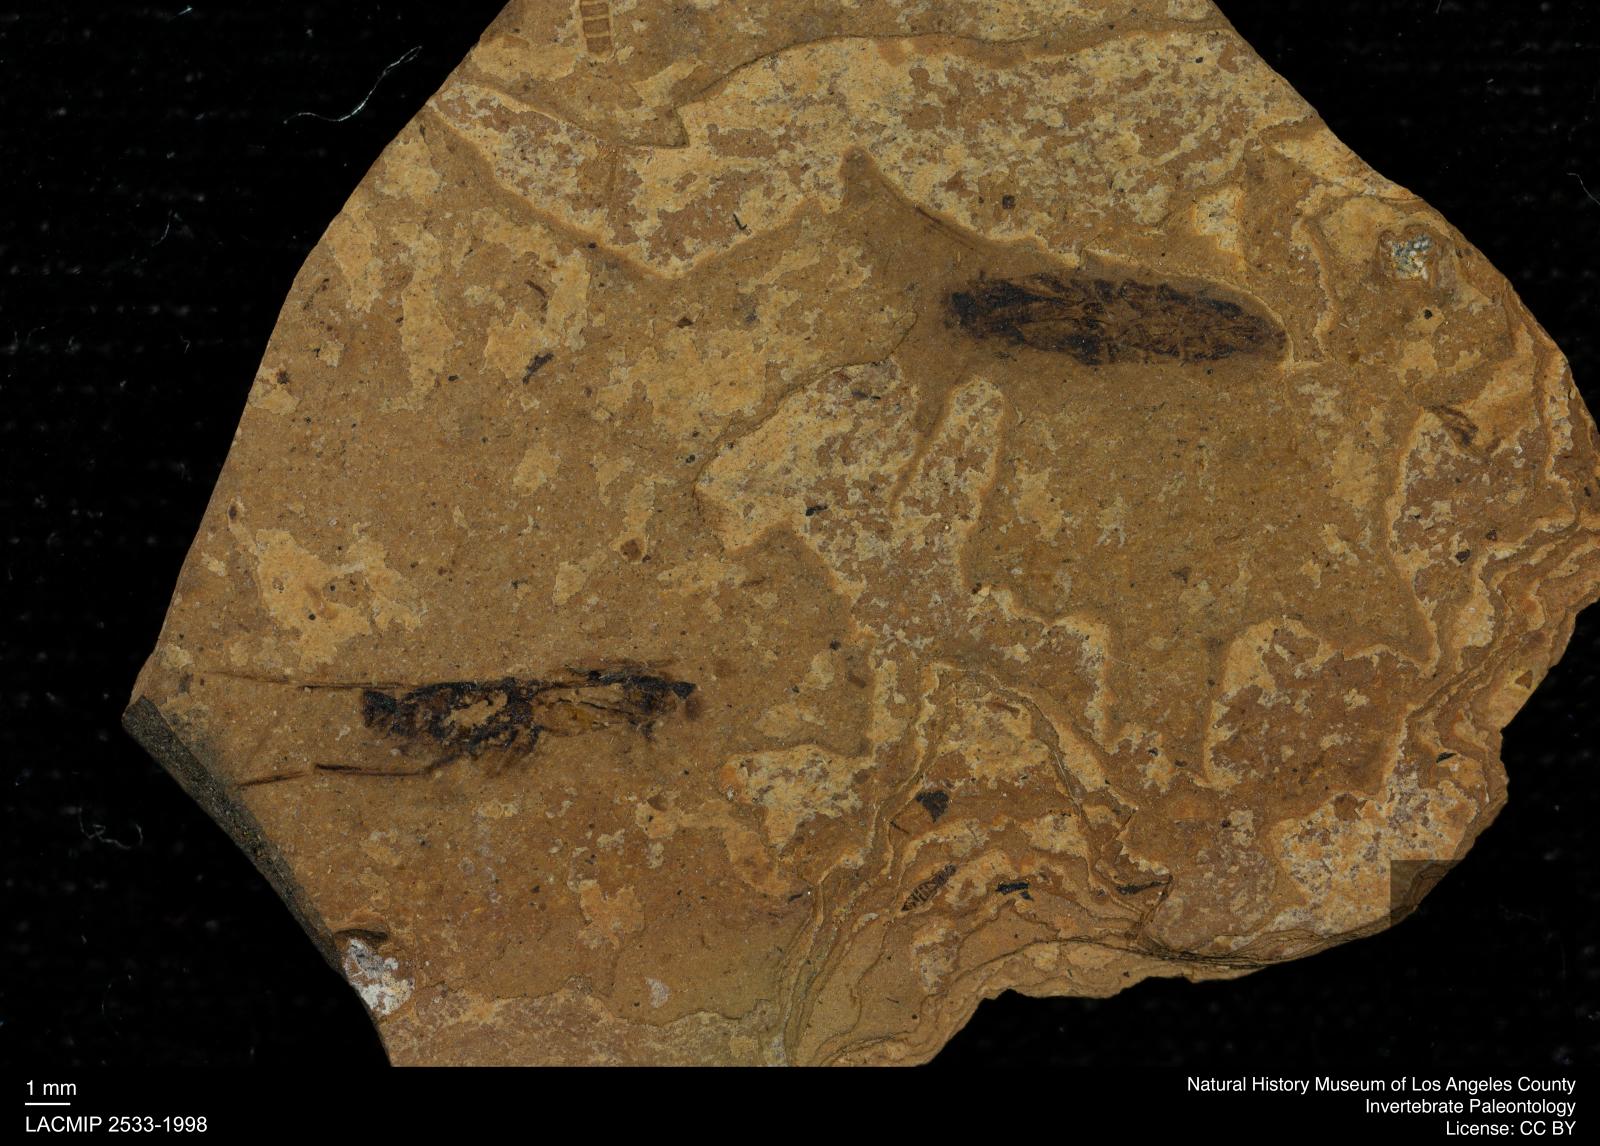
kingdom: Animalia
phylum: Arthropoda
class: Insecta
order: Hemiptera
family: Notonectidae
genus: Notonecta
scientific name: Notonecta
